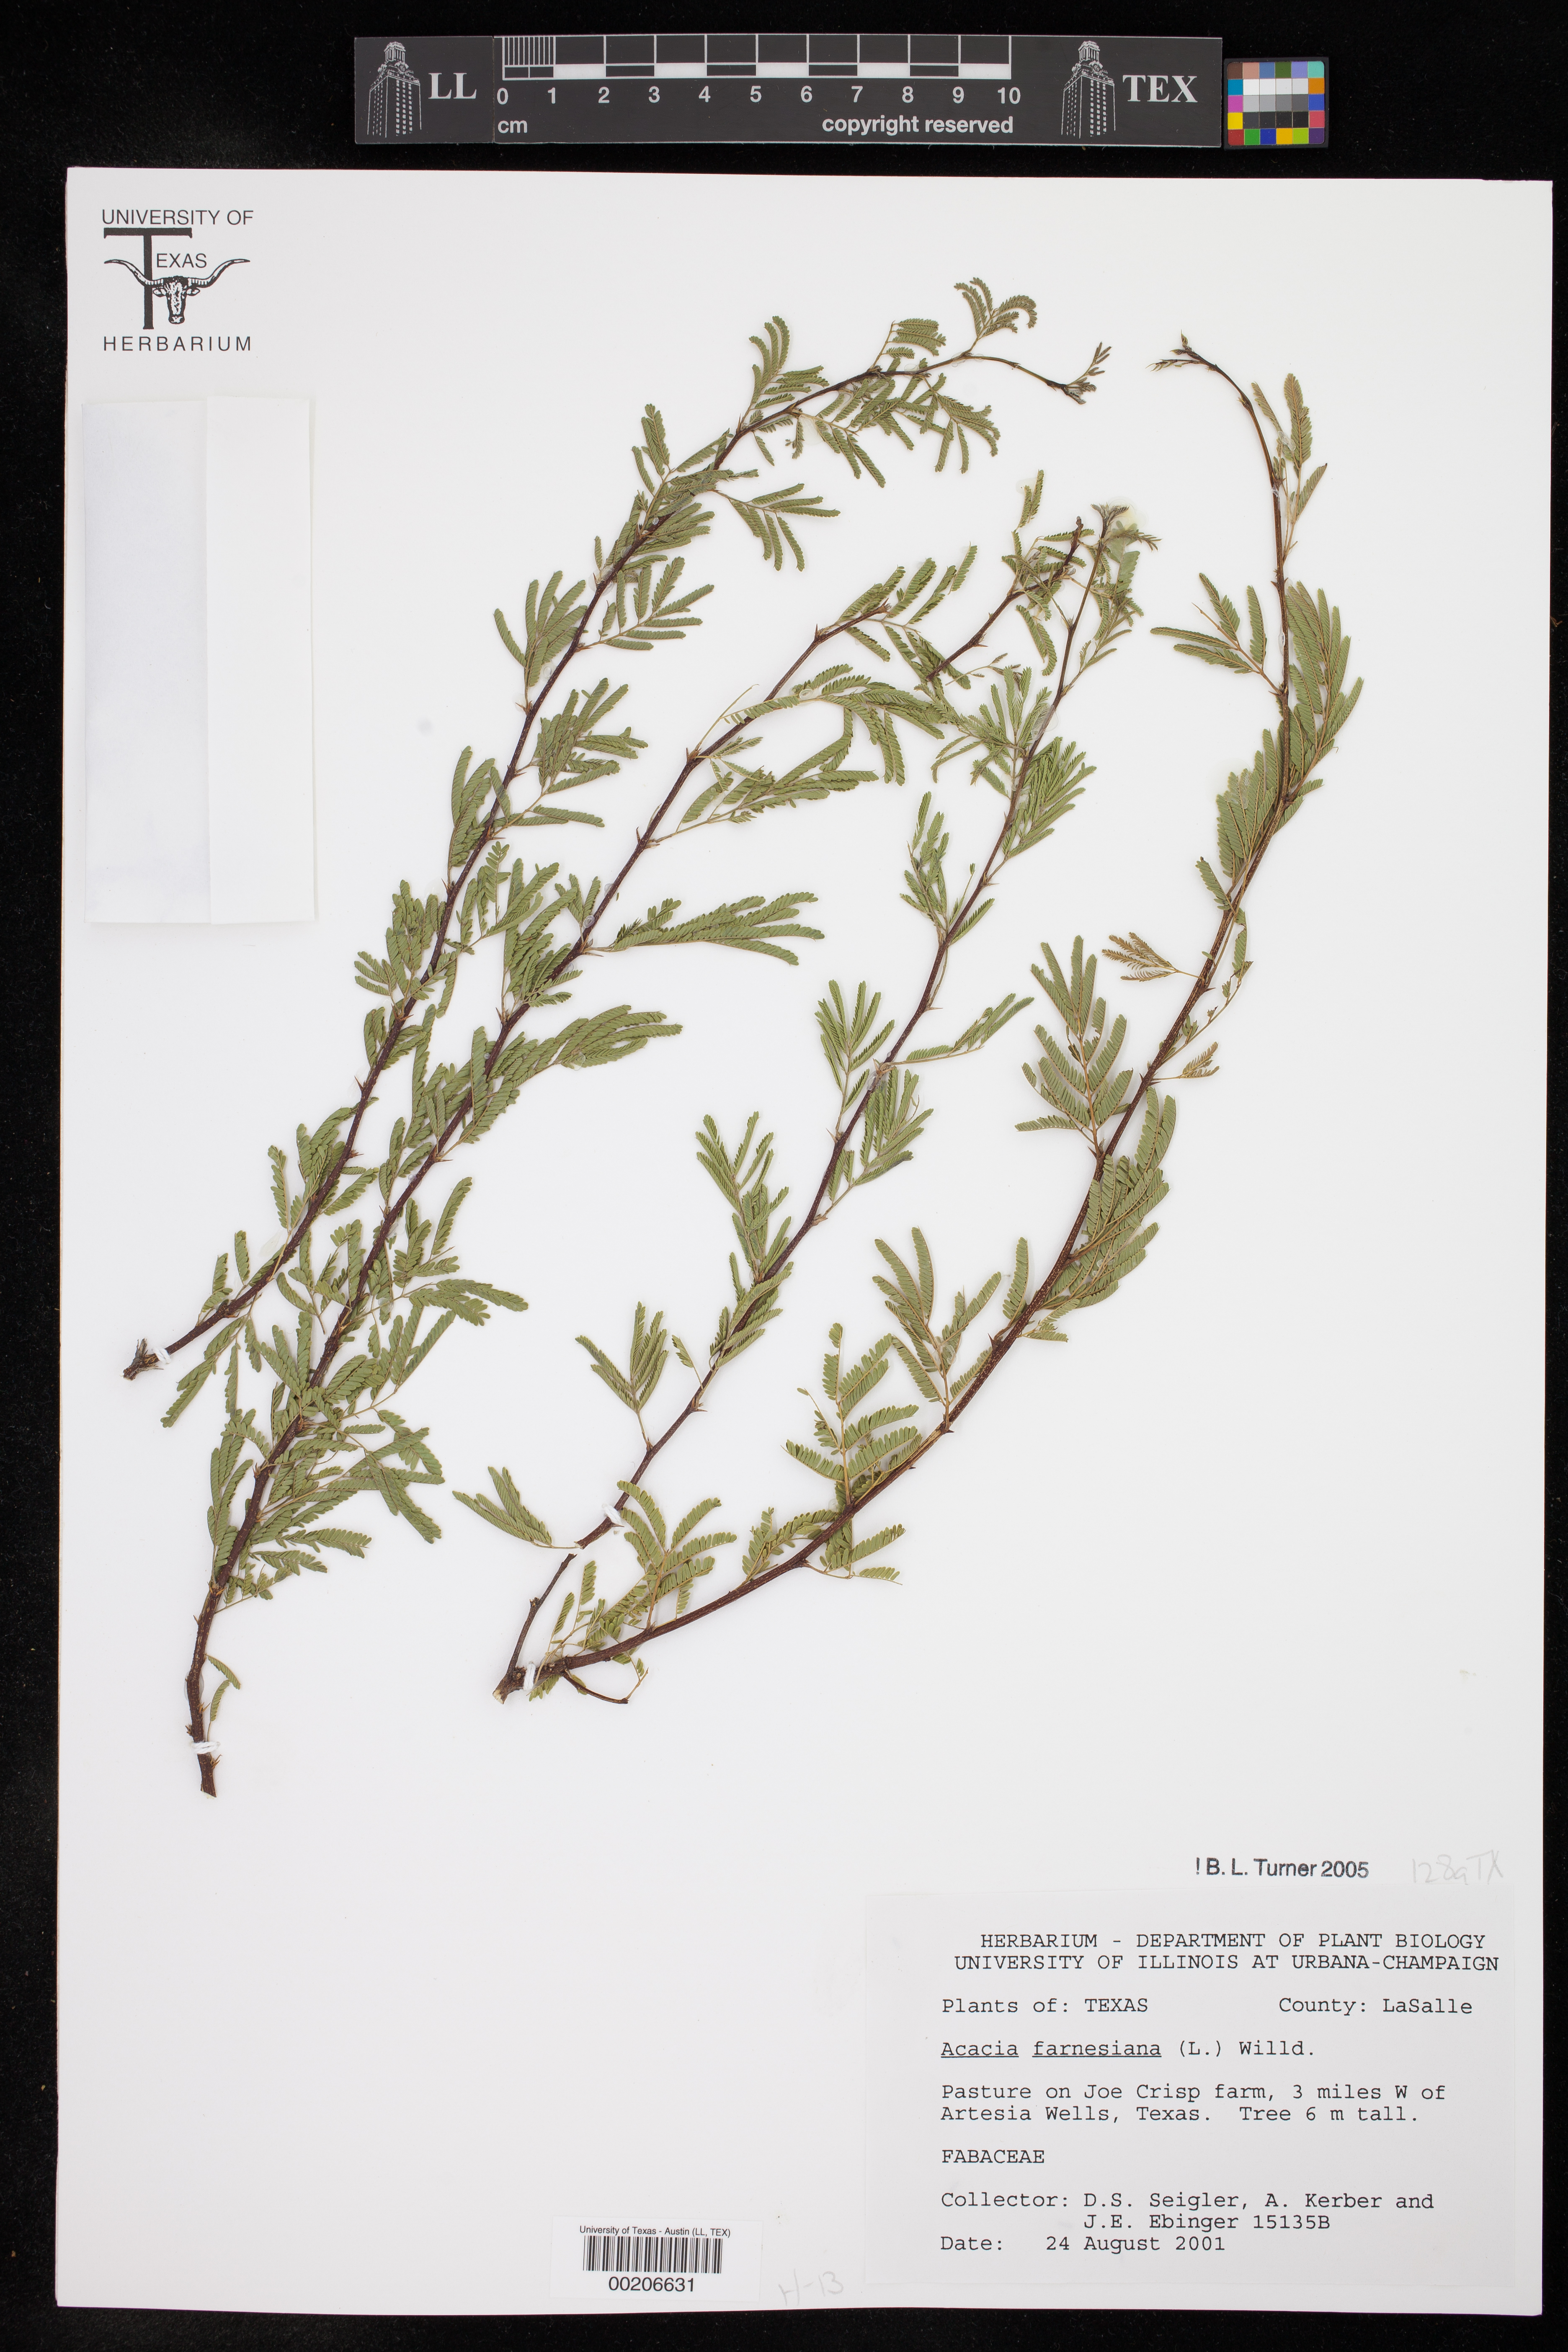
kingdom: Plantae
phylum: Tracheophyta
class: Magnoliopsida
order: Fabales
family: Fabaceae
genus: Vachellia
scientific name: Vachellia farnesiana
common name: Sweet acacia
